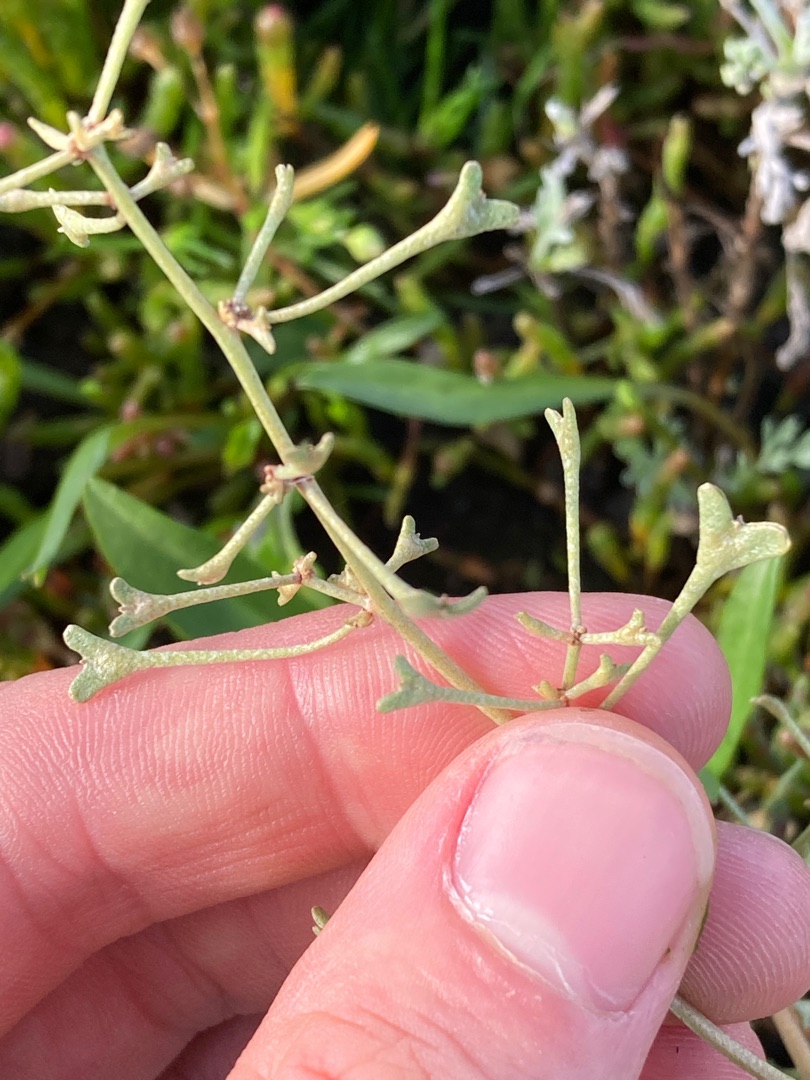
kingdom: Plantae
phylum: Tracheophyta
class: Magnoliopsida
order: Caryophyllales
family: Amaranthaceae
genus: Halimione
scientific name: Halimione pedunculata
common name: Stilket kilebæger
